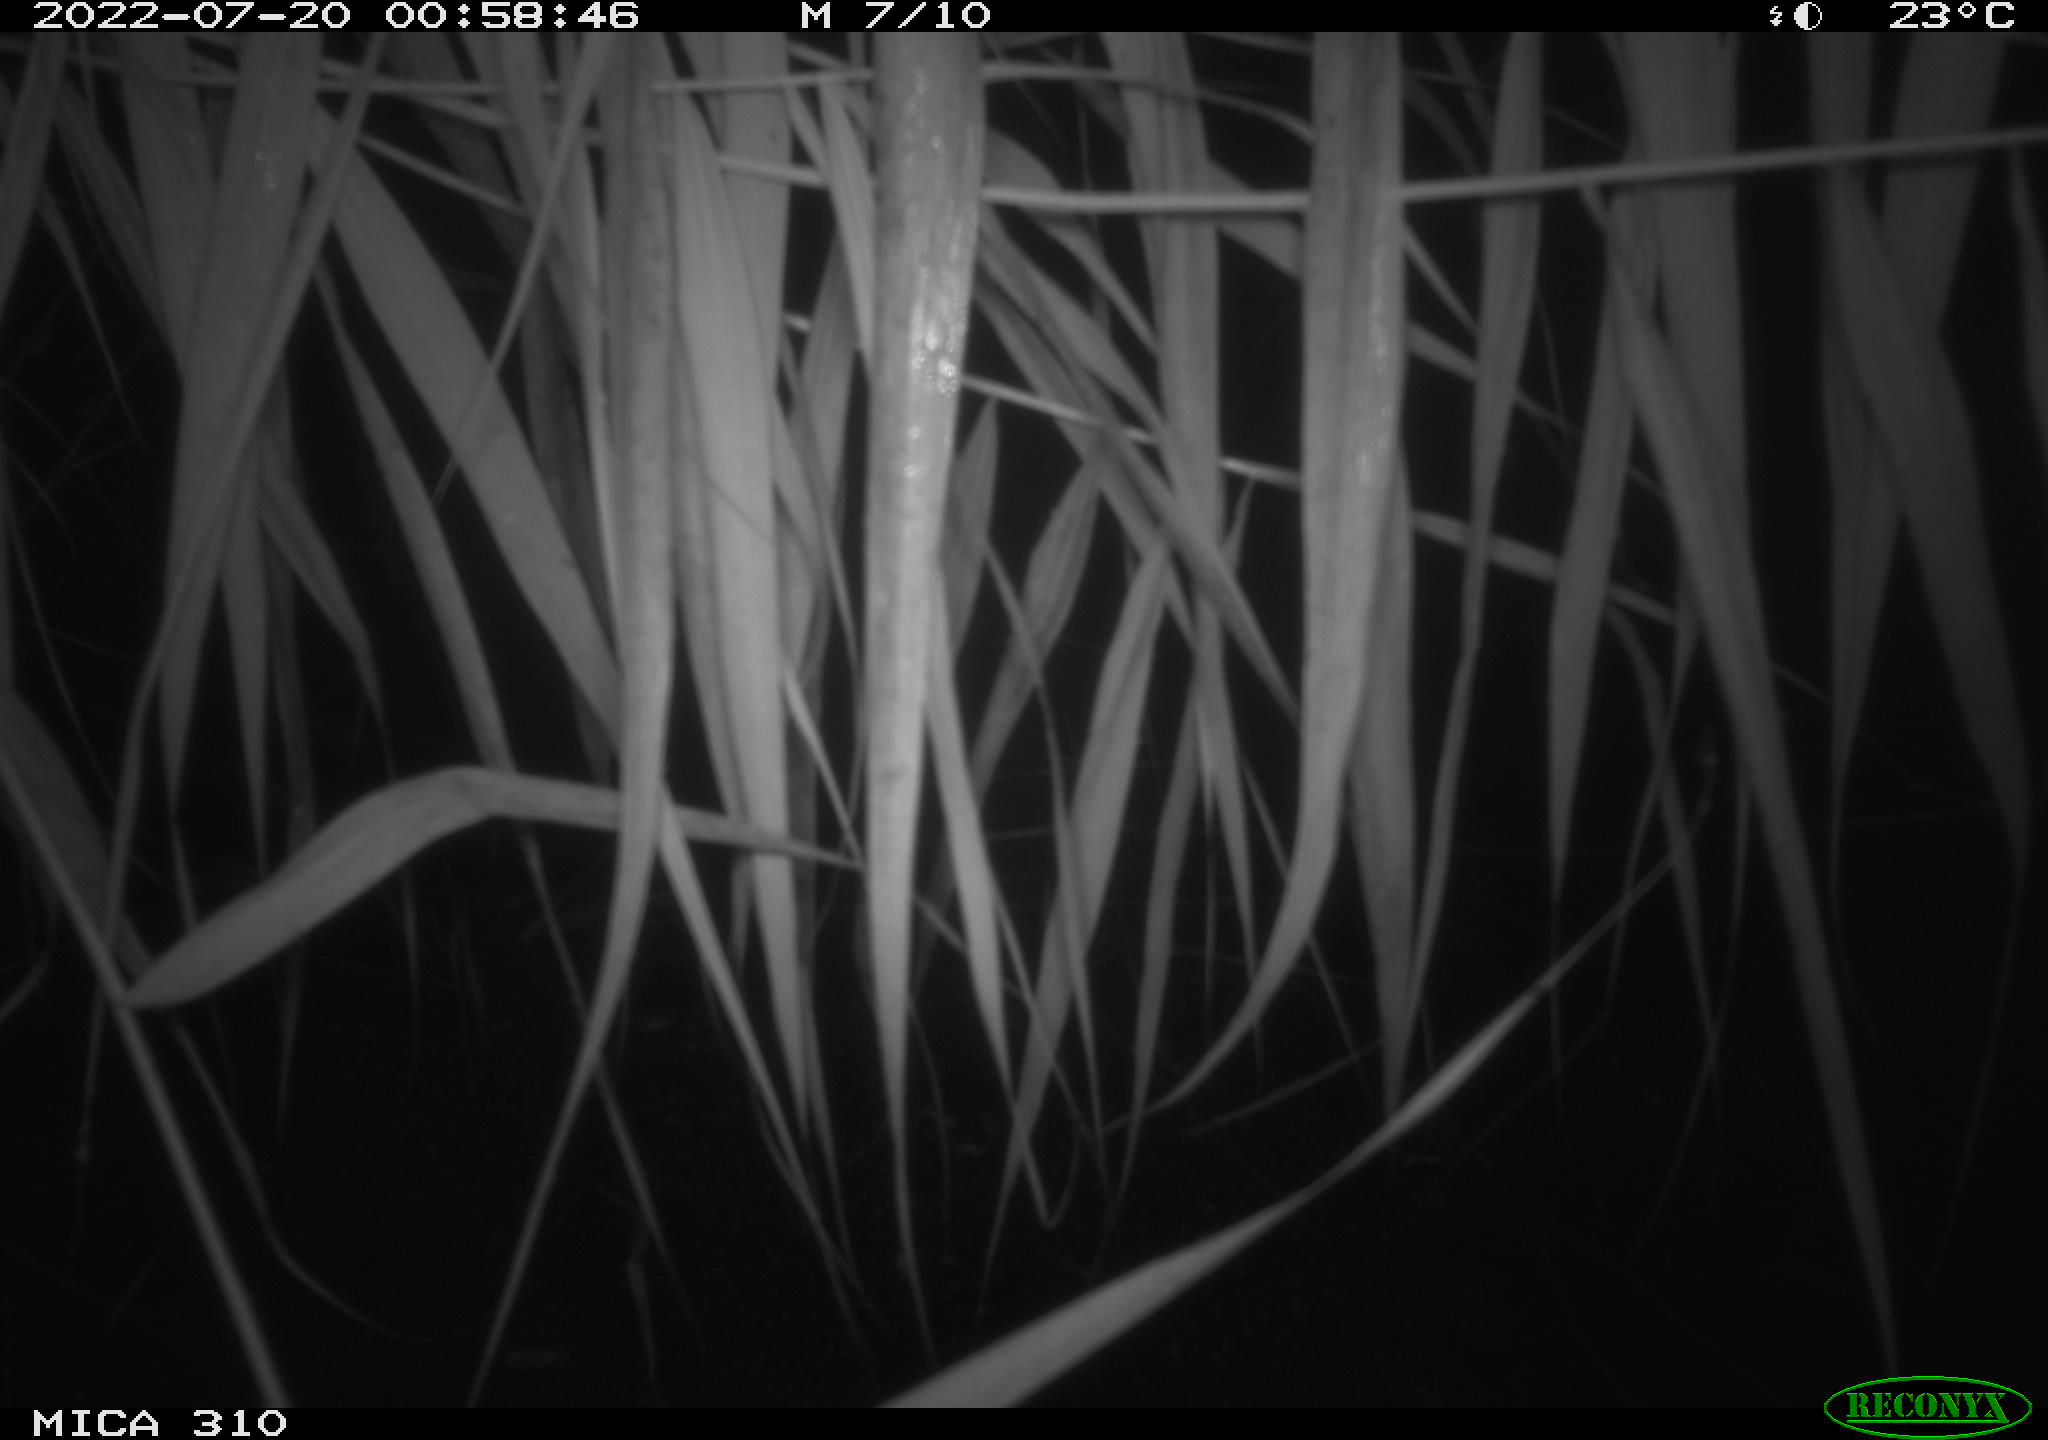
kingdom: Animalia
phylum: Chordata
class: Mammalia
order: Rodentia
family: Cricetidae
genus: Ondatra
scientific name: Ondatra zibethicus
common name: Muskrat
